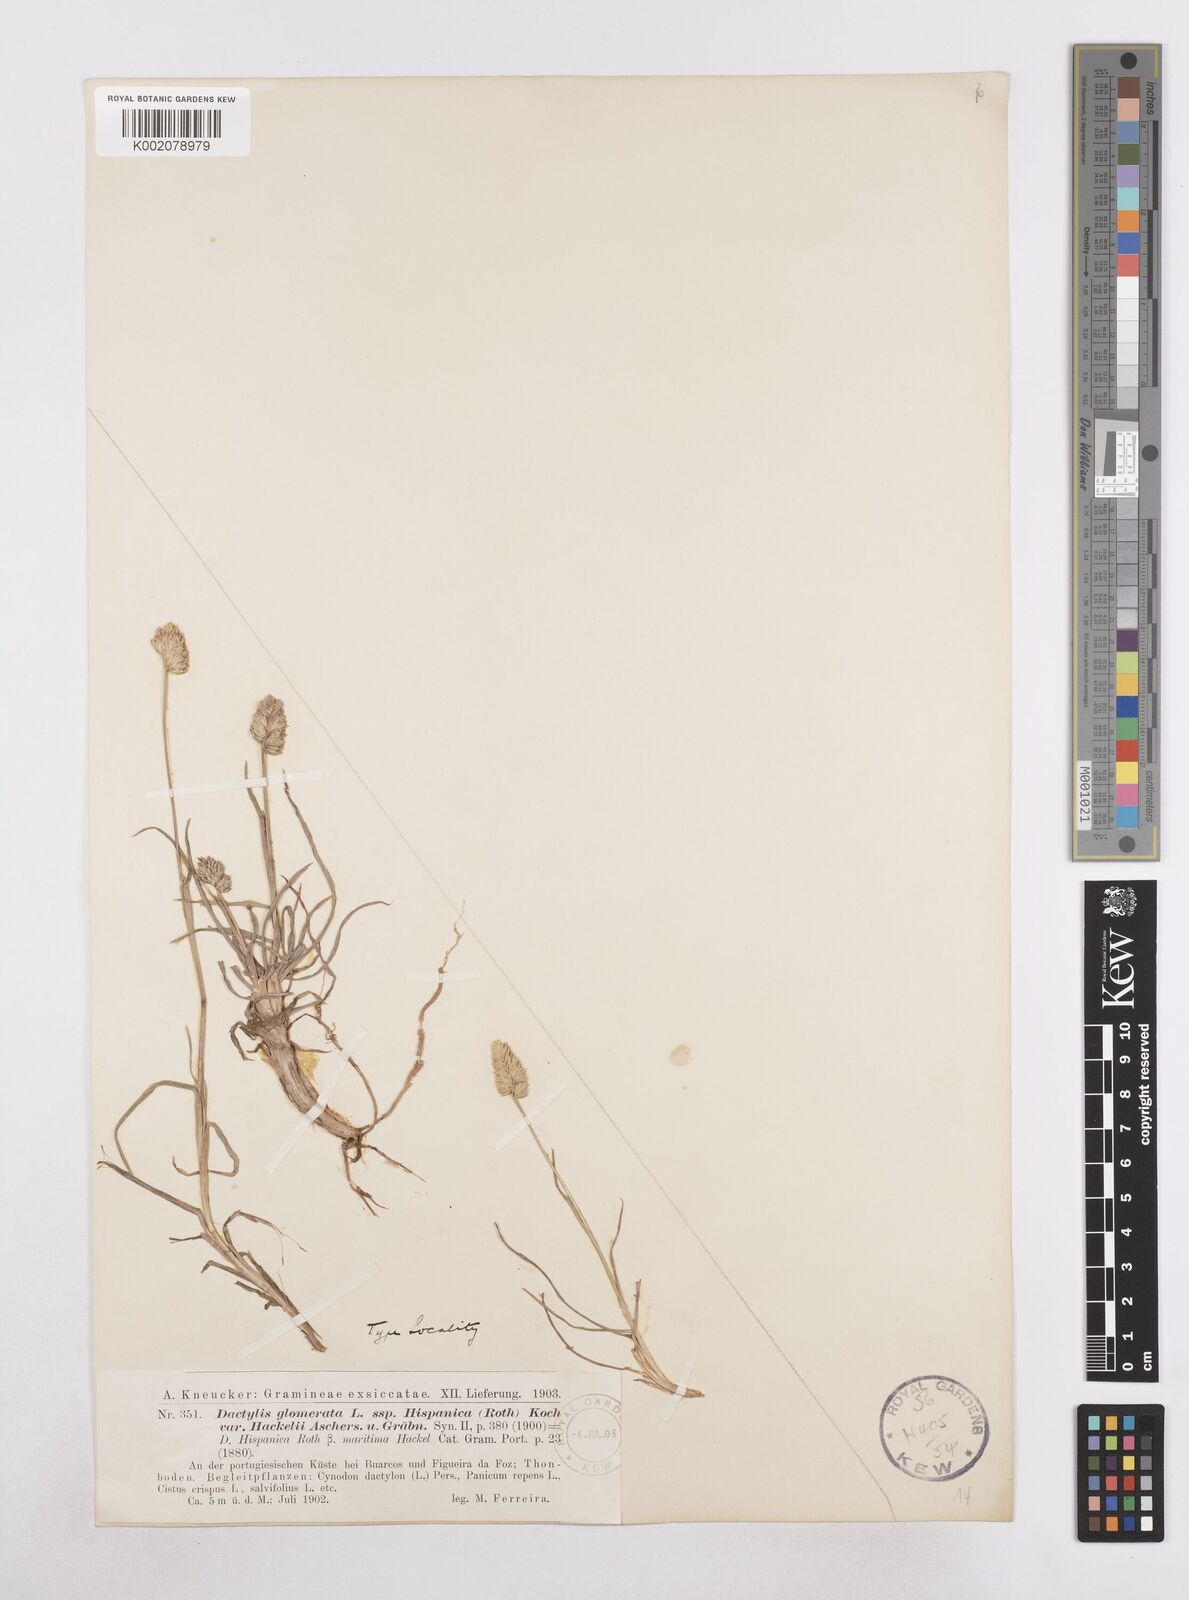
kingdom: Plantae
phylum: Tracheophyta
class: Liliopsida
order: Poales
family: Poaceae
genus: Dactylis
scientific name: Dactylis glomerata
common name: Orchardgrass
